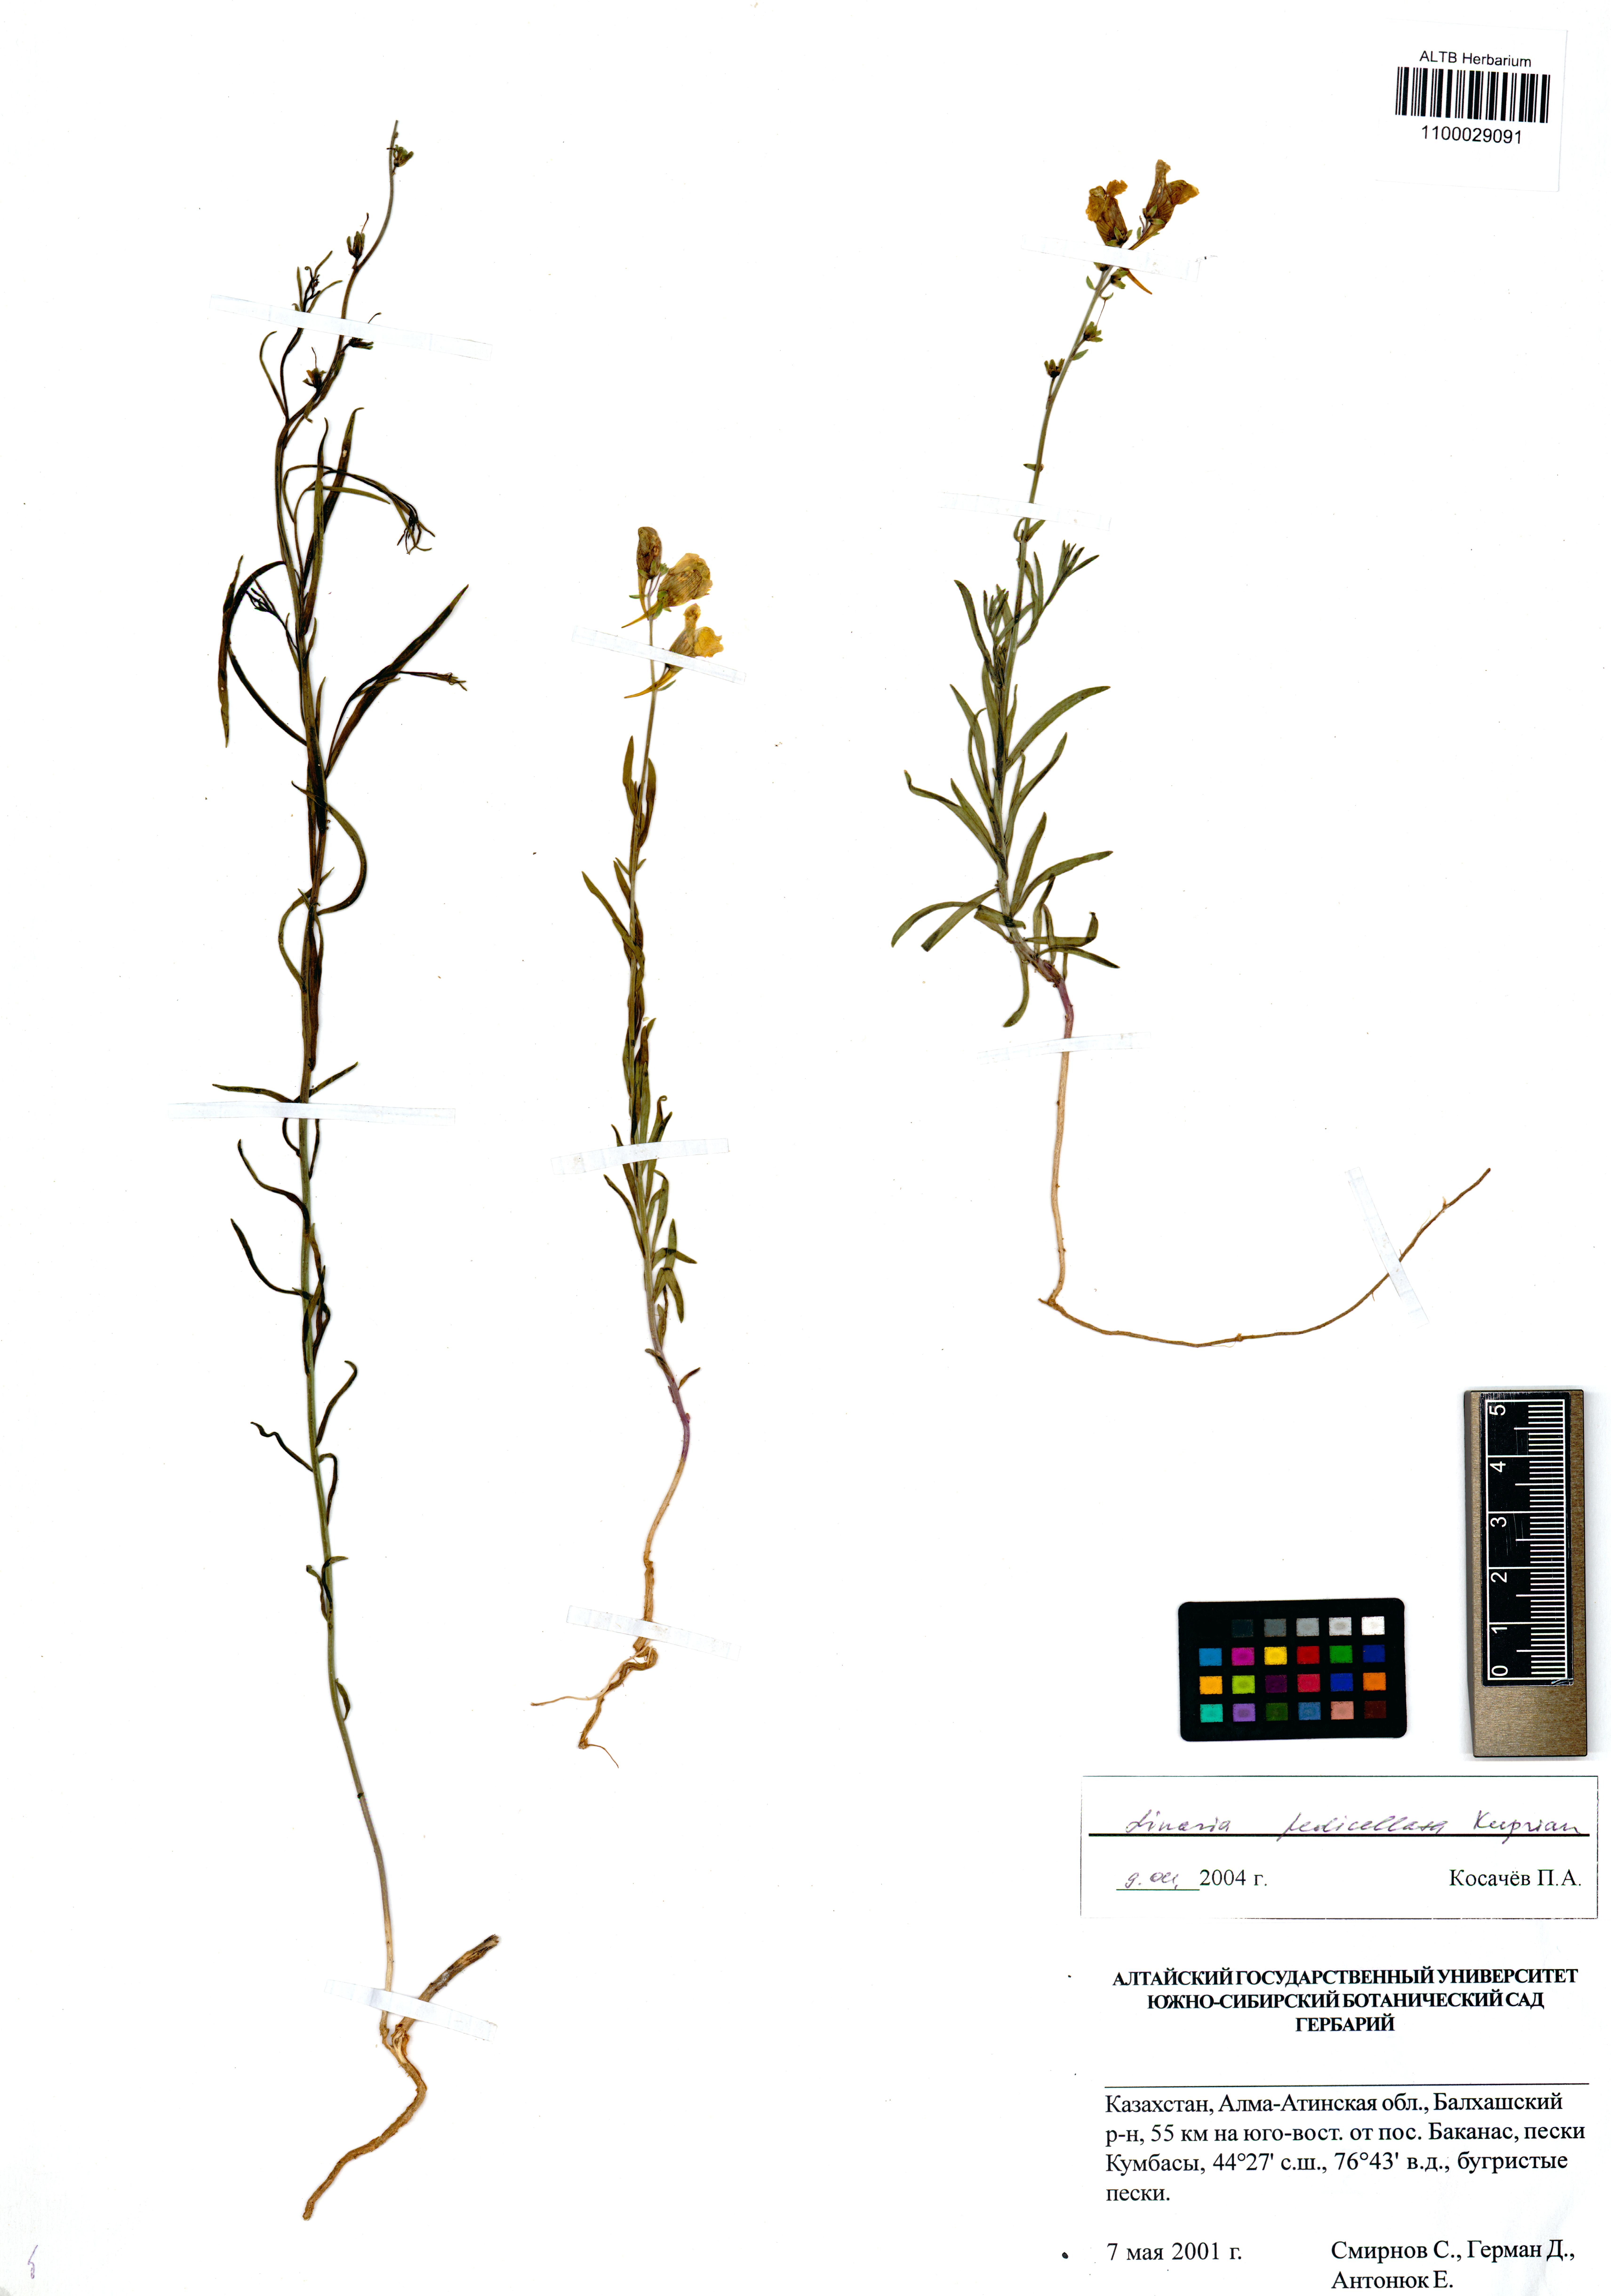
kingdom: Plantae
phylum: Tracheophyta
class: Magnoliopsida
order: Lamiales
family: Plantaginaceae
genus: Linaria
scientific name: Linaria pedicellata
